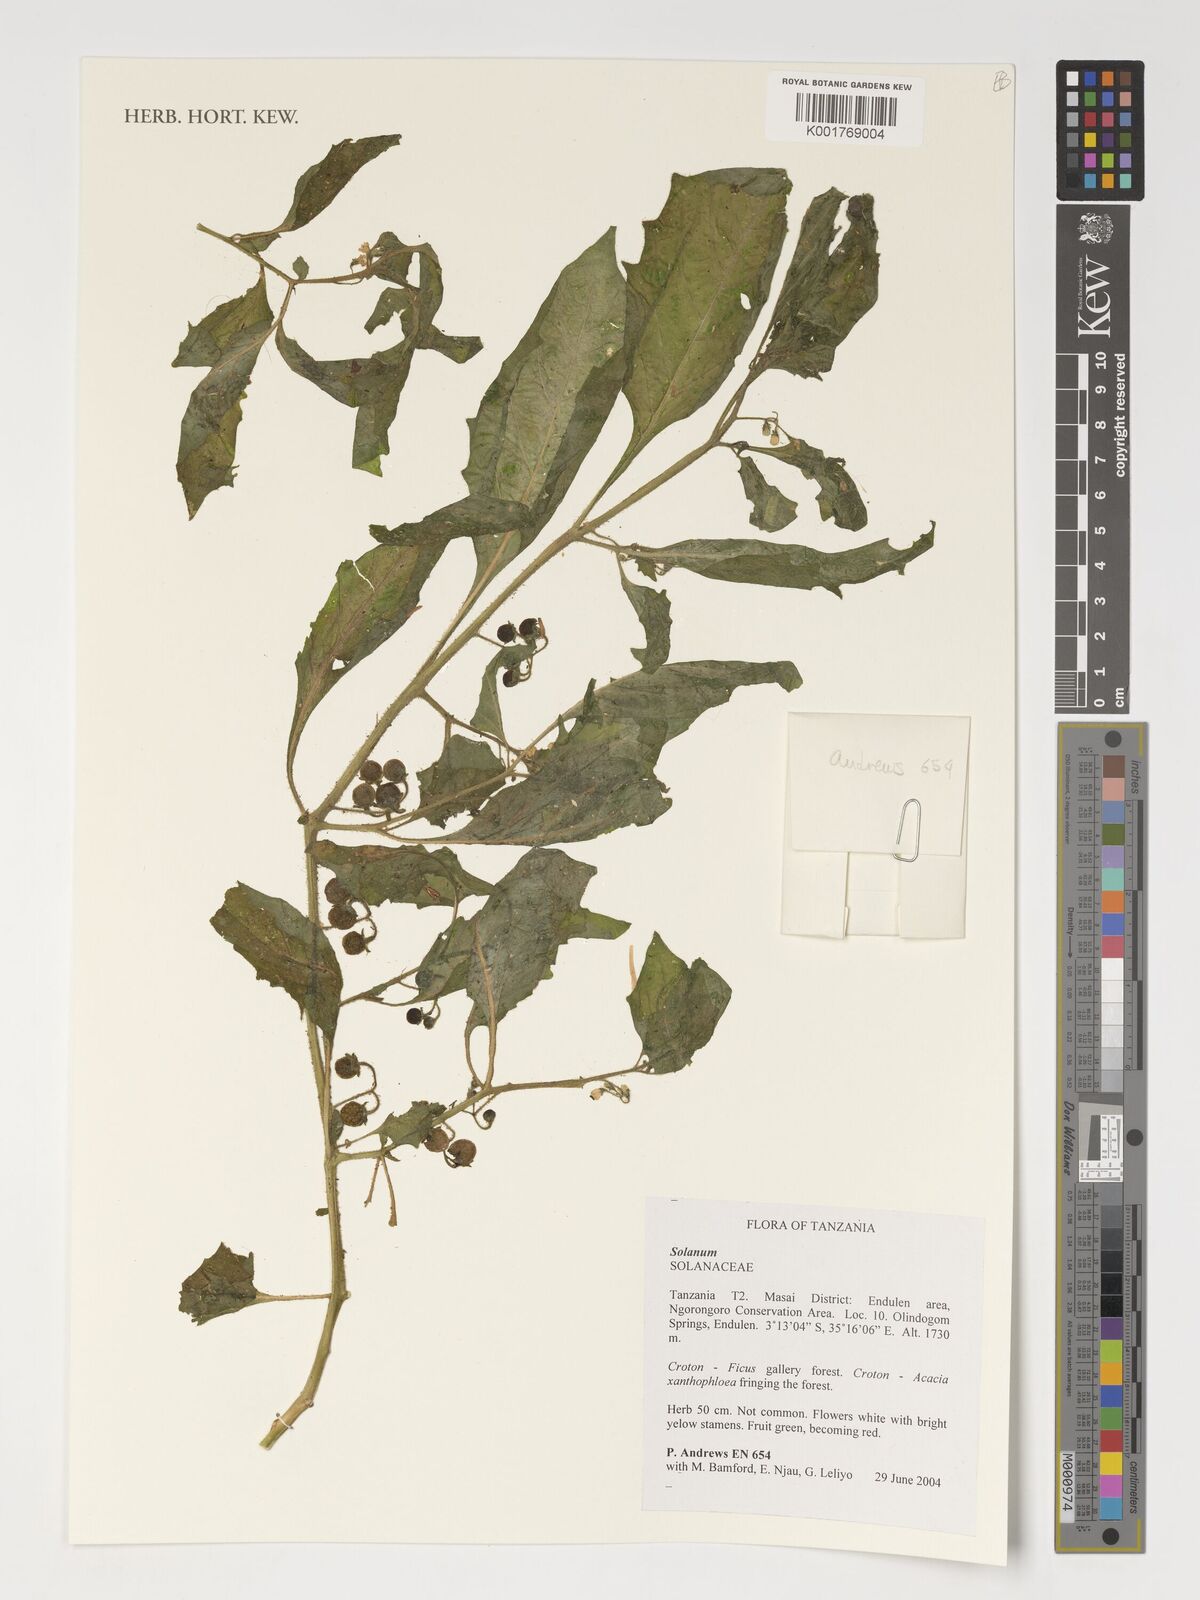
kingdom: Plantae
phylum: Tracheophyta
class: Magnoliopsida
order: Solanales
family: Solanaceae
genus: Solanum
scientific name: Solanum
